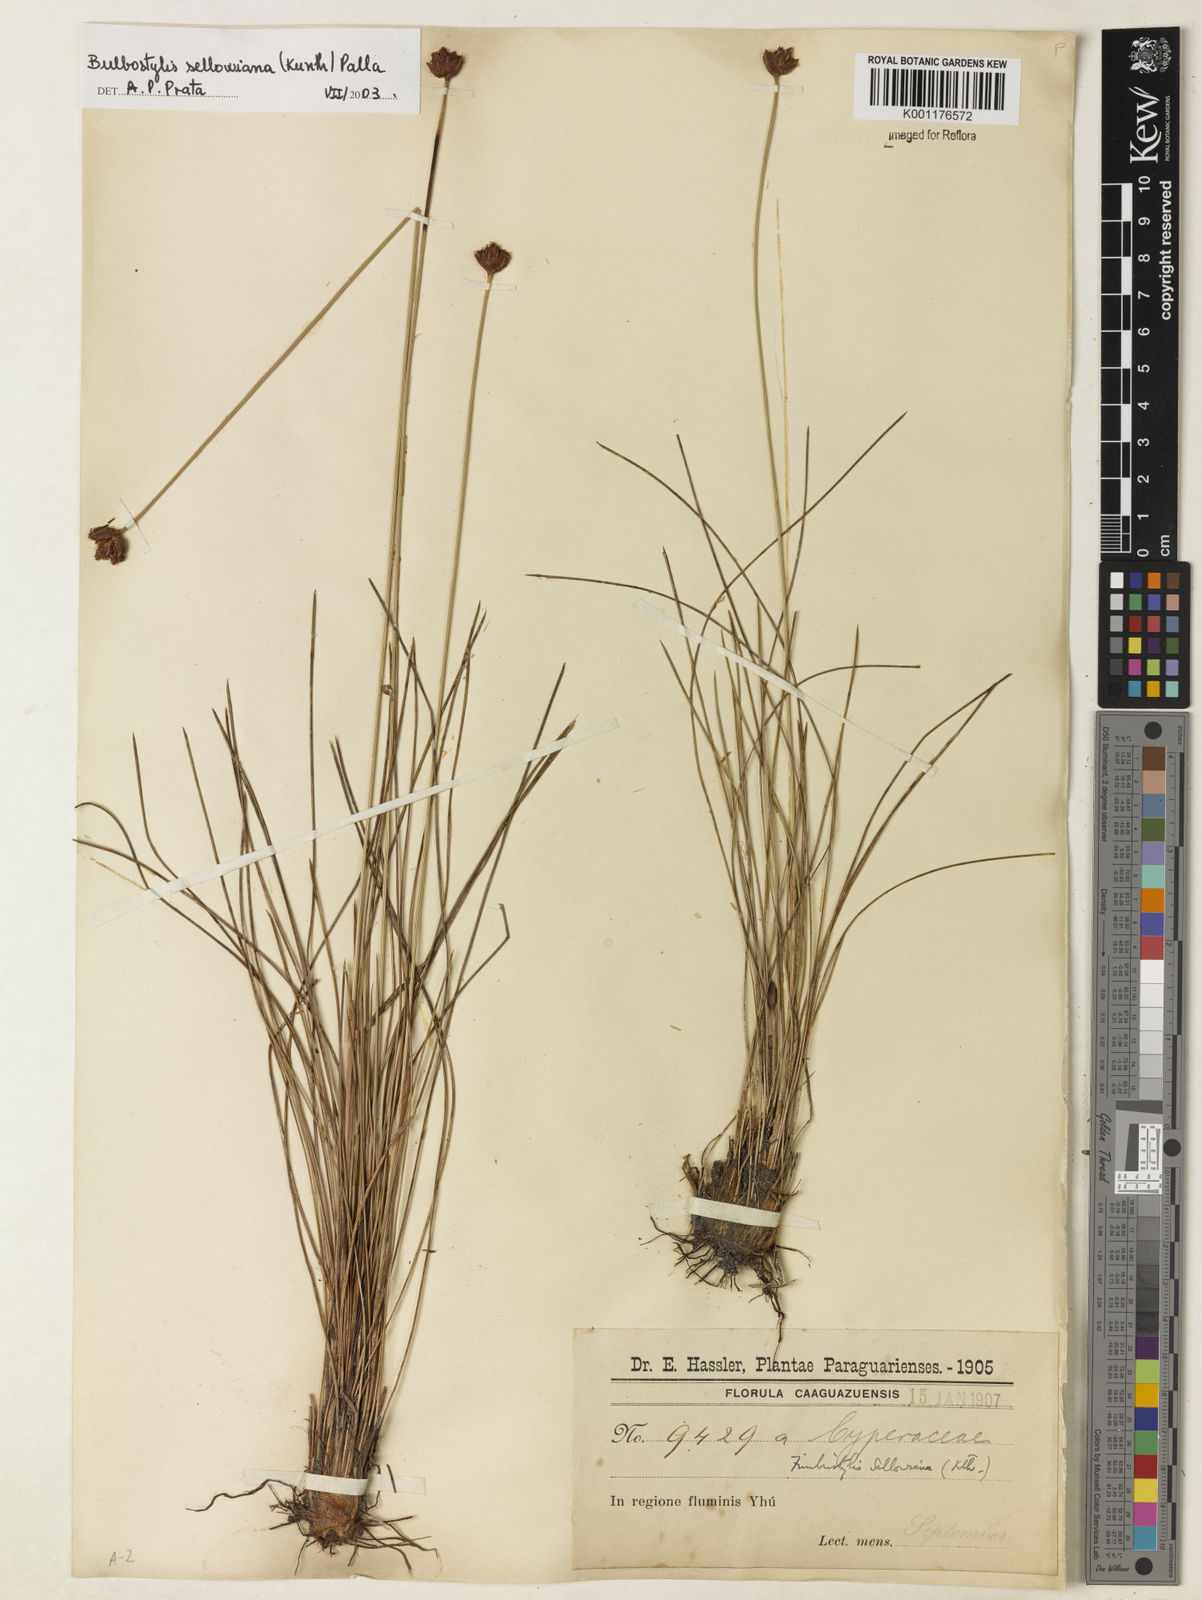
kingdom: Plantae
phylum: Tracheophyta
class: Liliopsida
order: Poales
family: Cyperaceae
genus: Bulbostylis
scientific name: Bulbostylis sellowiana
